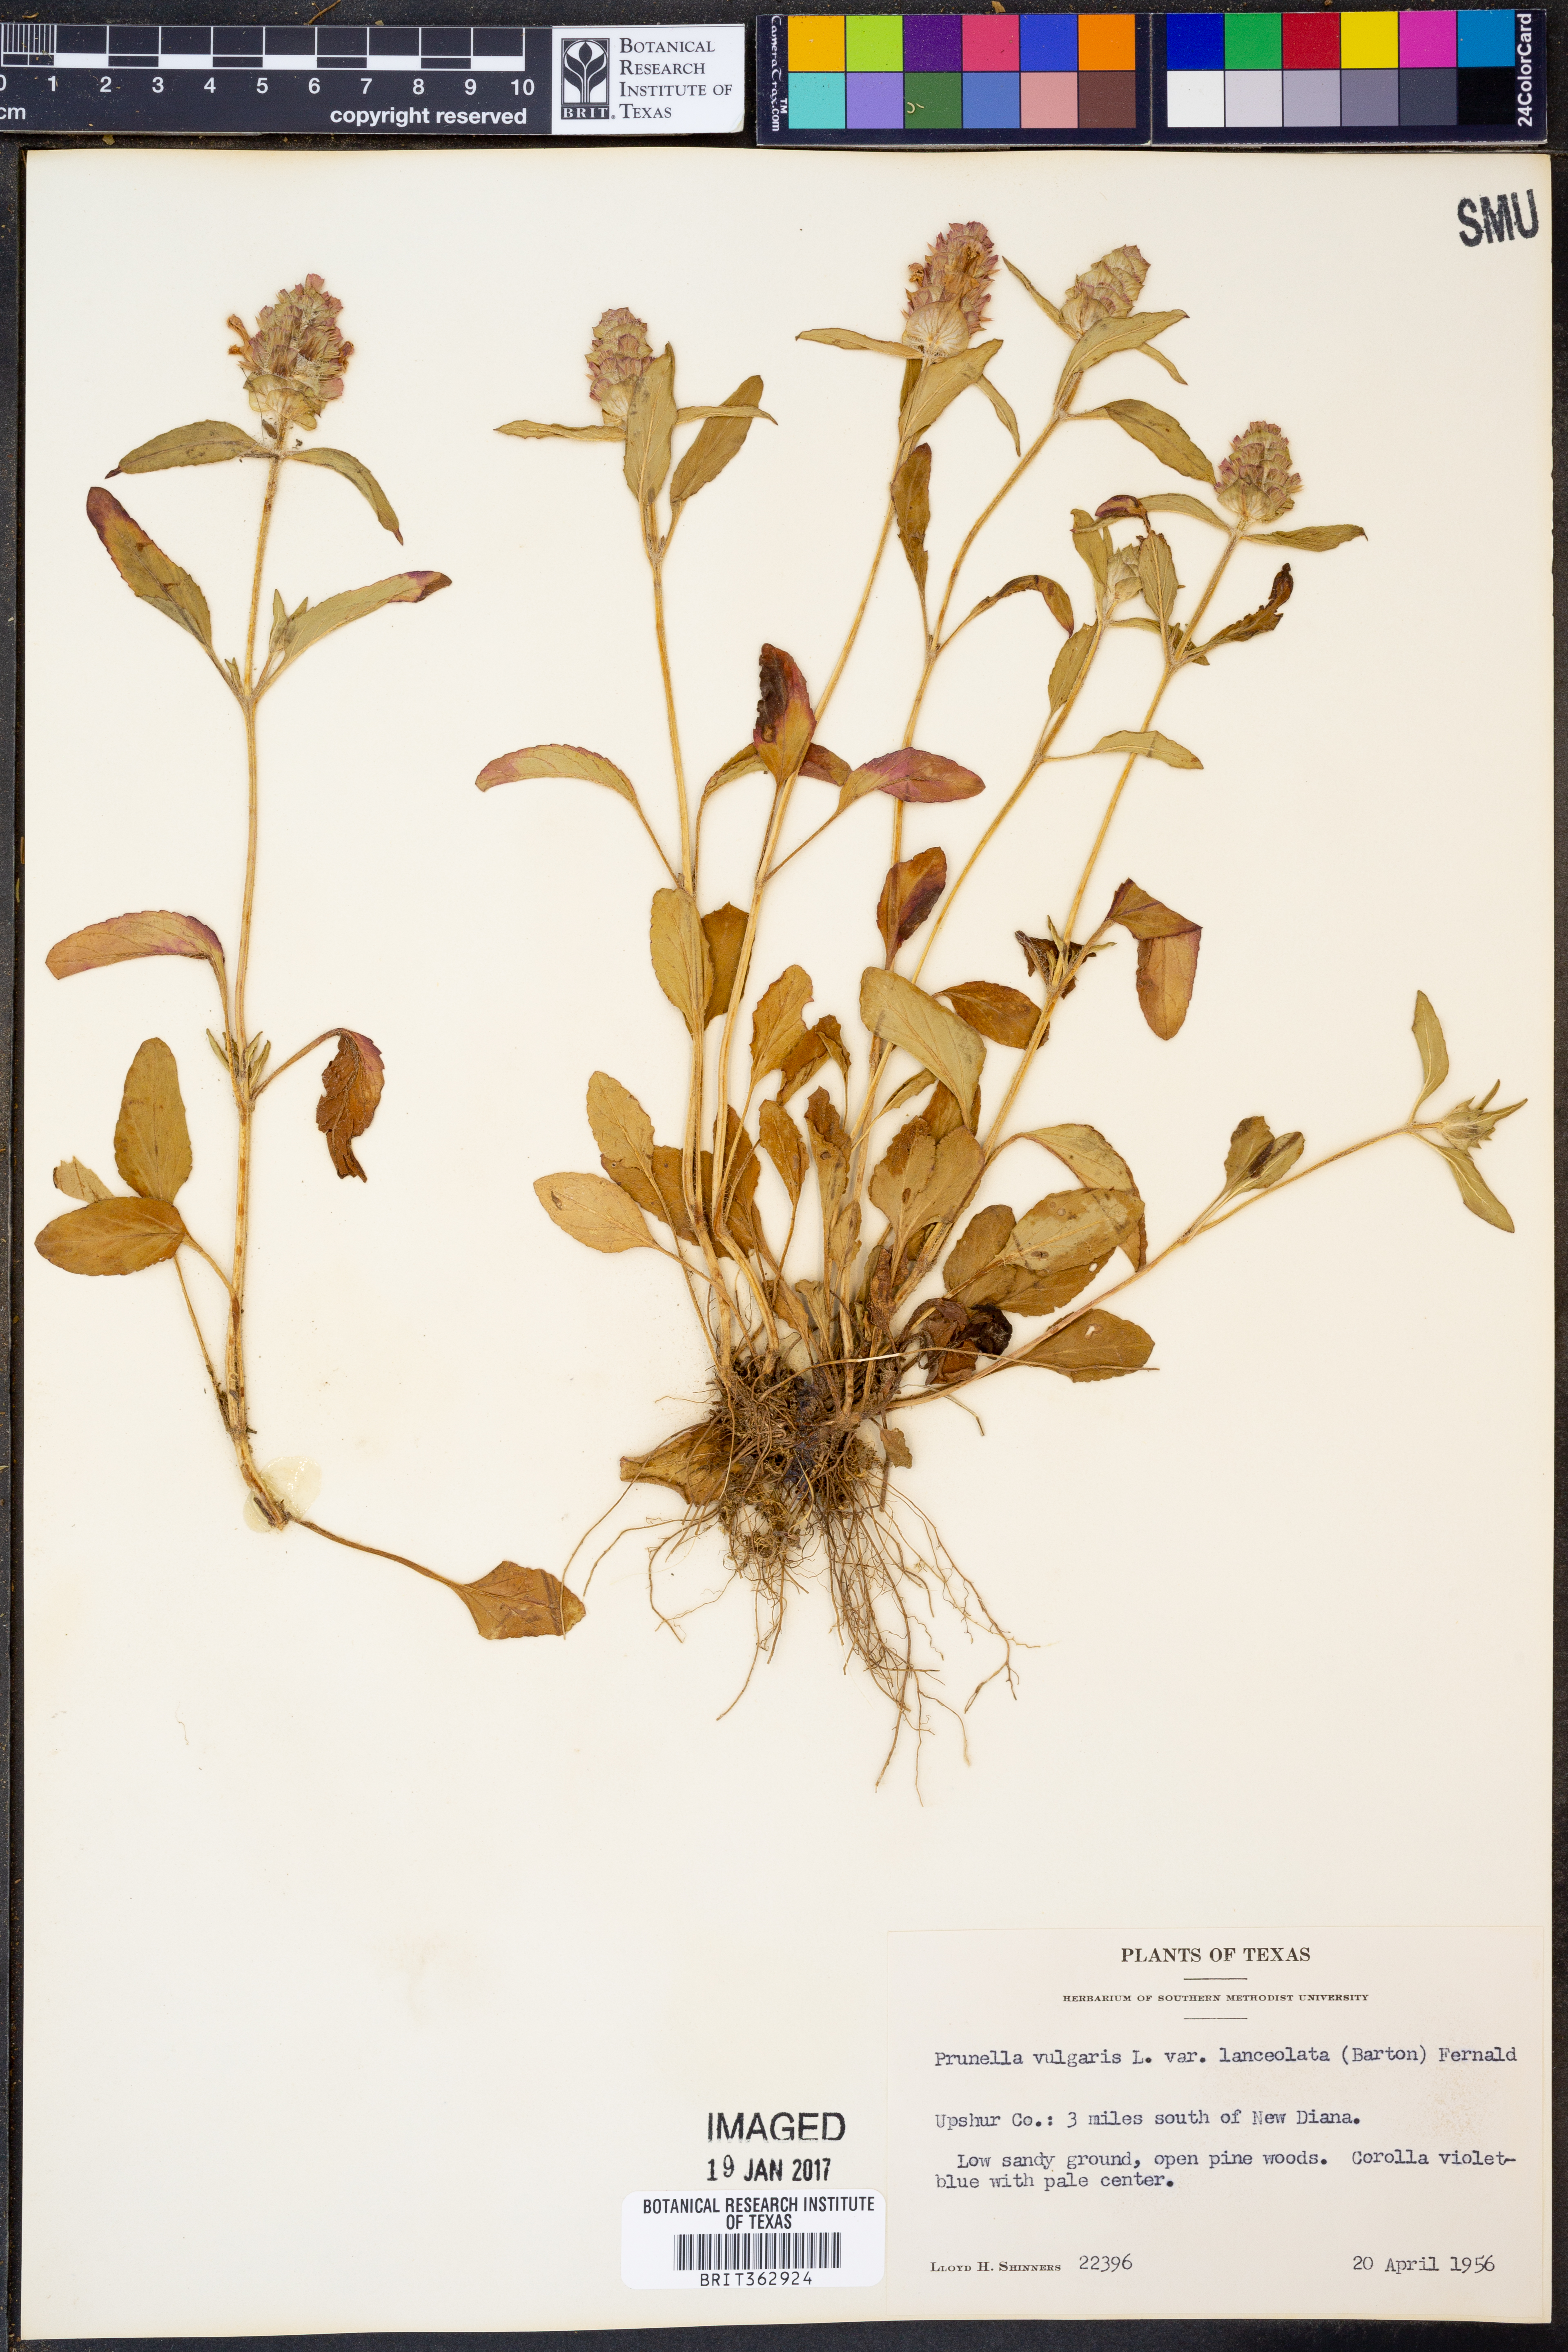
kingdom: Plantae
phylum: Tracheophyta
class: Magnoliopsida
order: Lamiales
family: Lamiaceae
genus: Prunella
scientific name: Prunella vulgaris
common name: Heal-all
